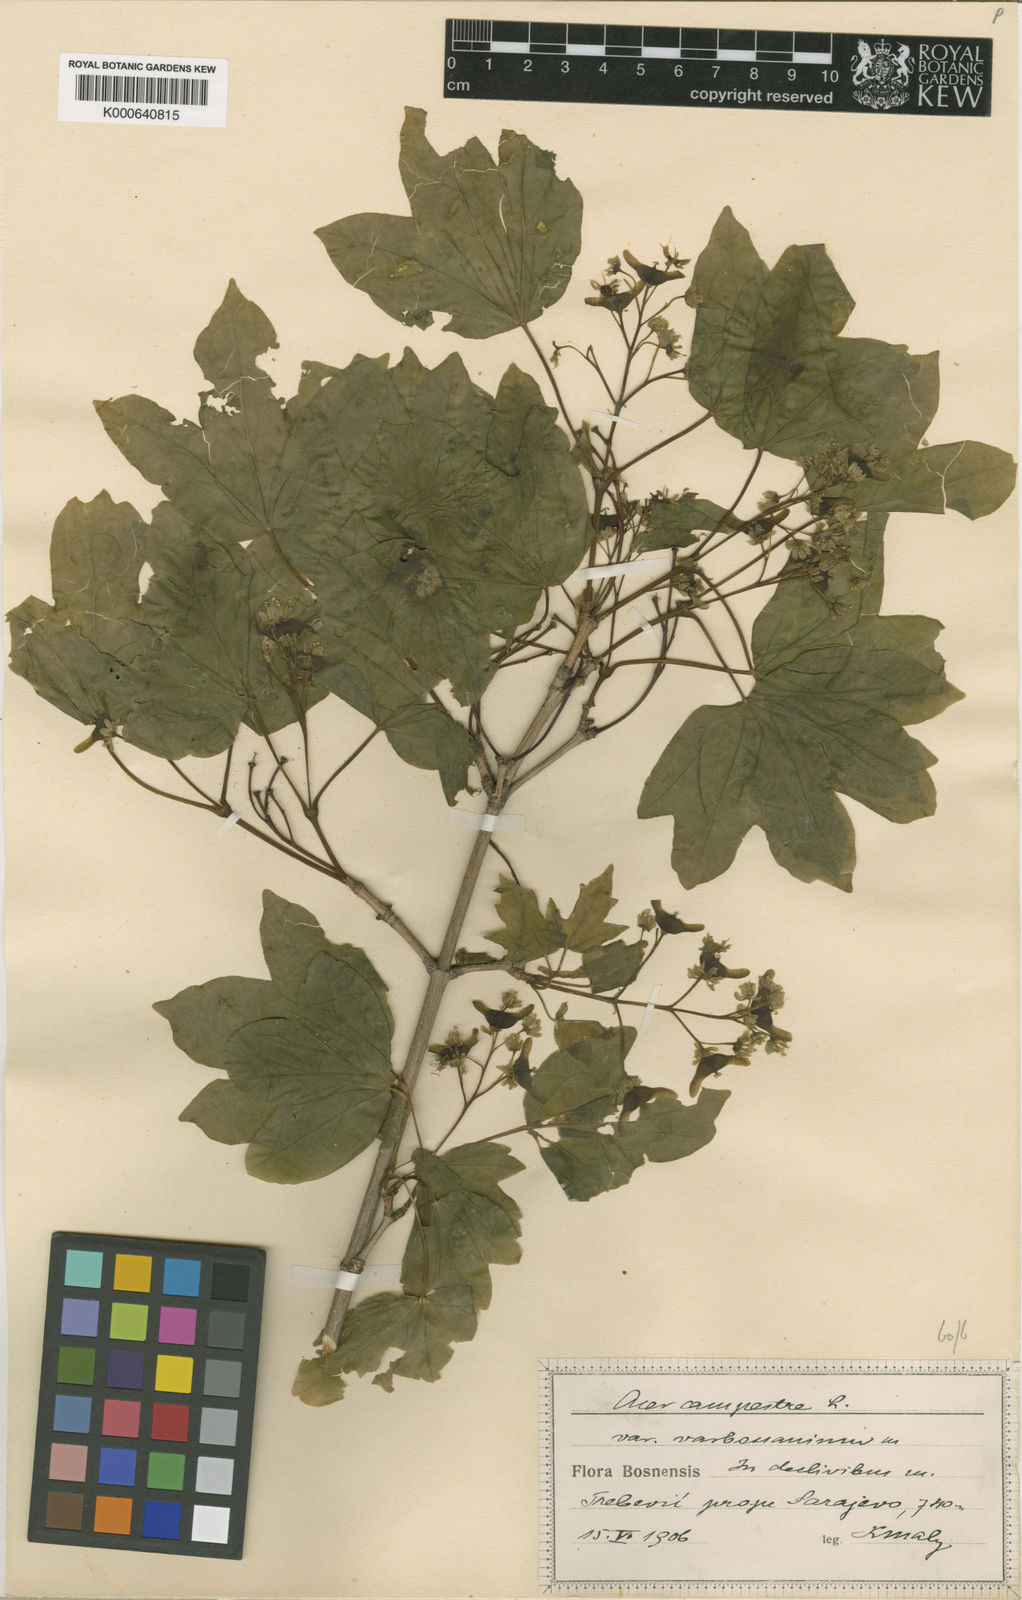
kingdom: Plantae
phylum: Tracheophyta
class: Magnoliopsida
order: Sapindales
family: Sapindaceae
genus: Acer
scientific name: Acer campestre
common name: Field maple
